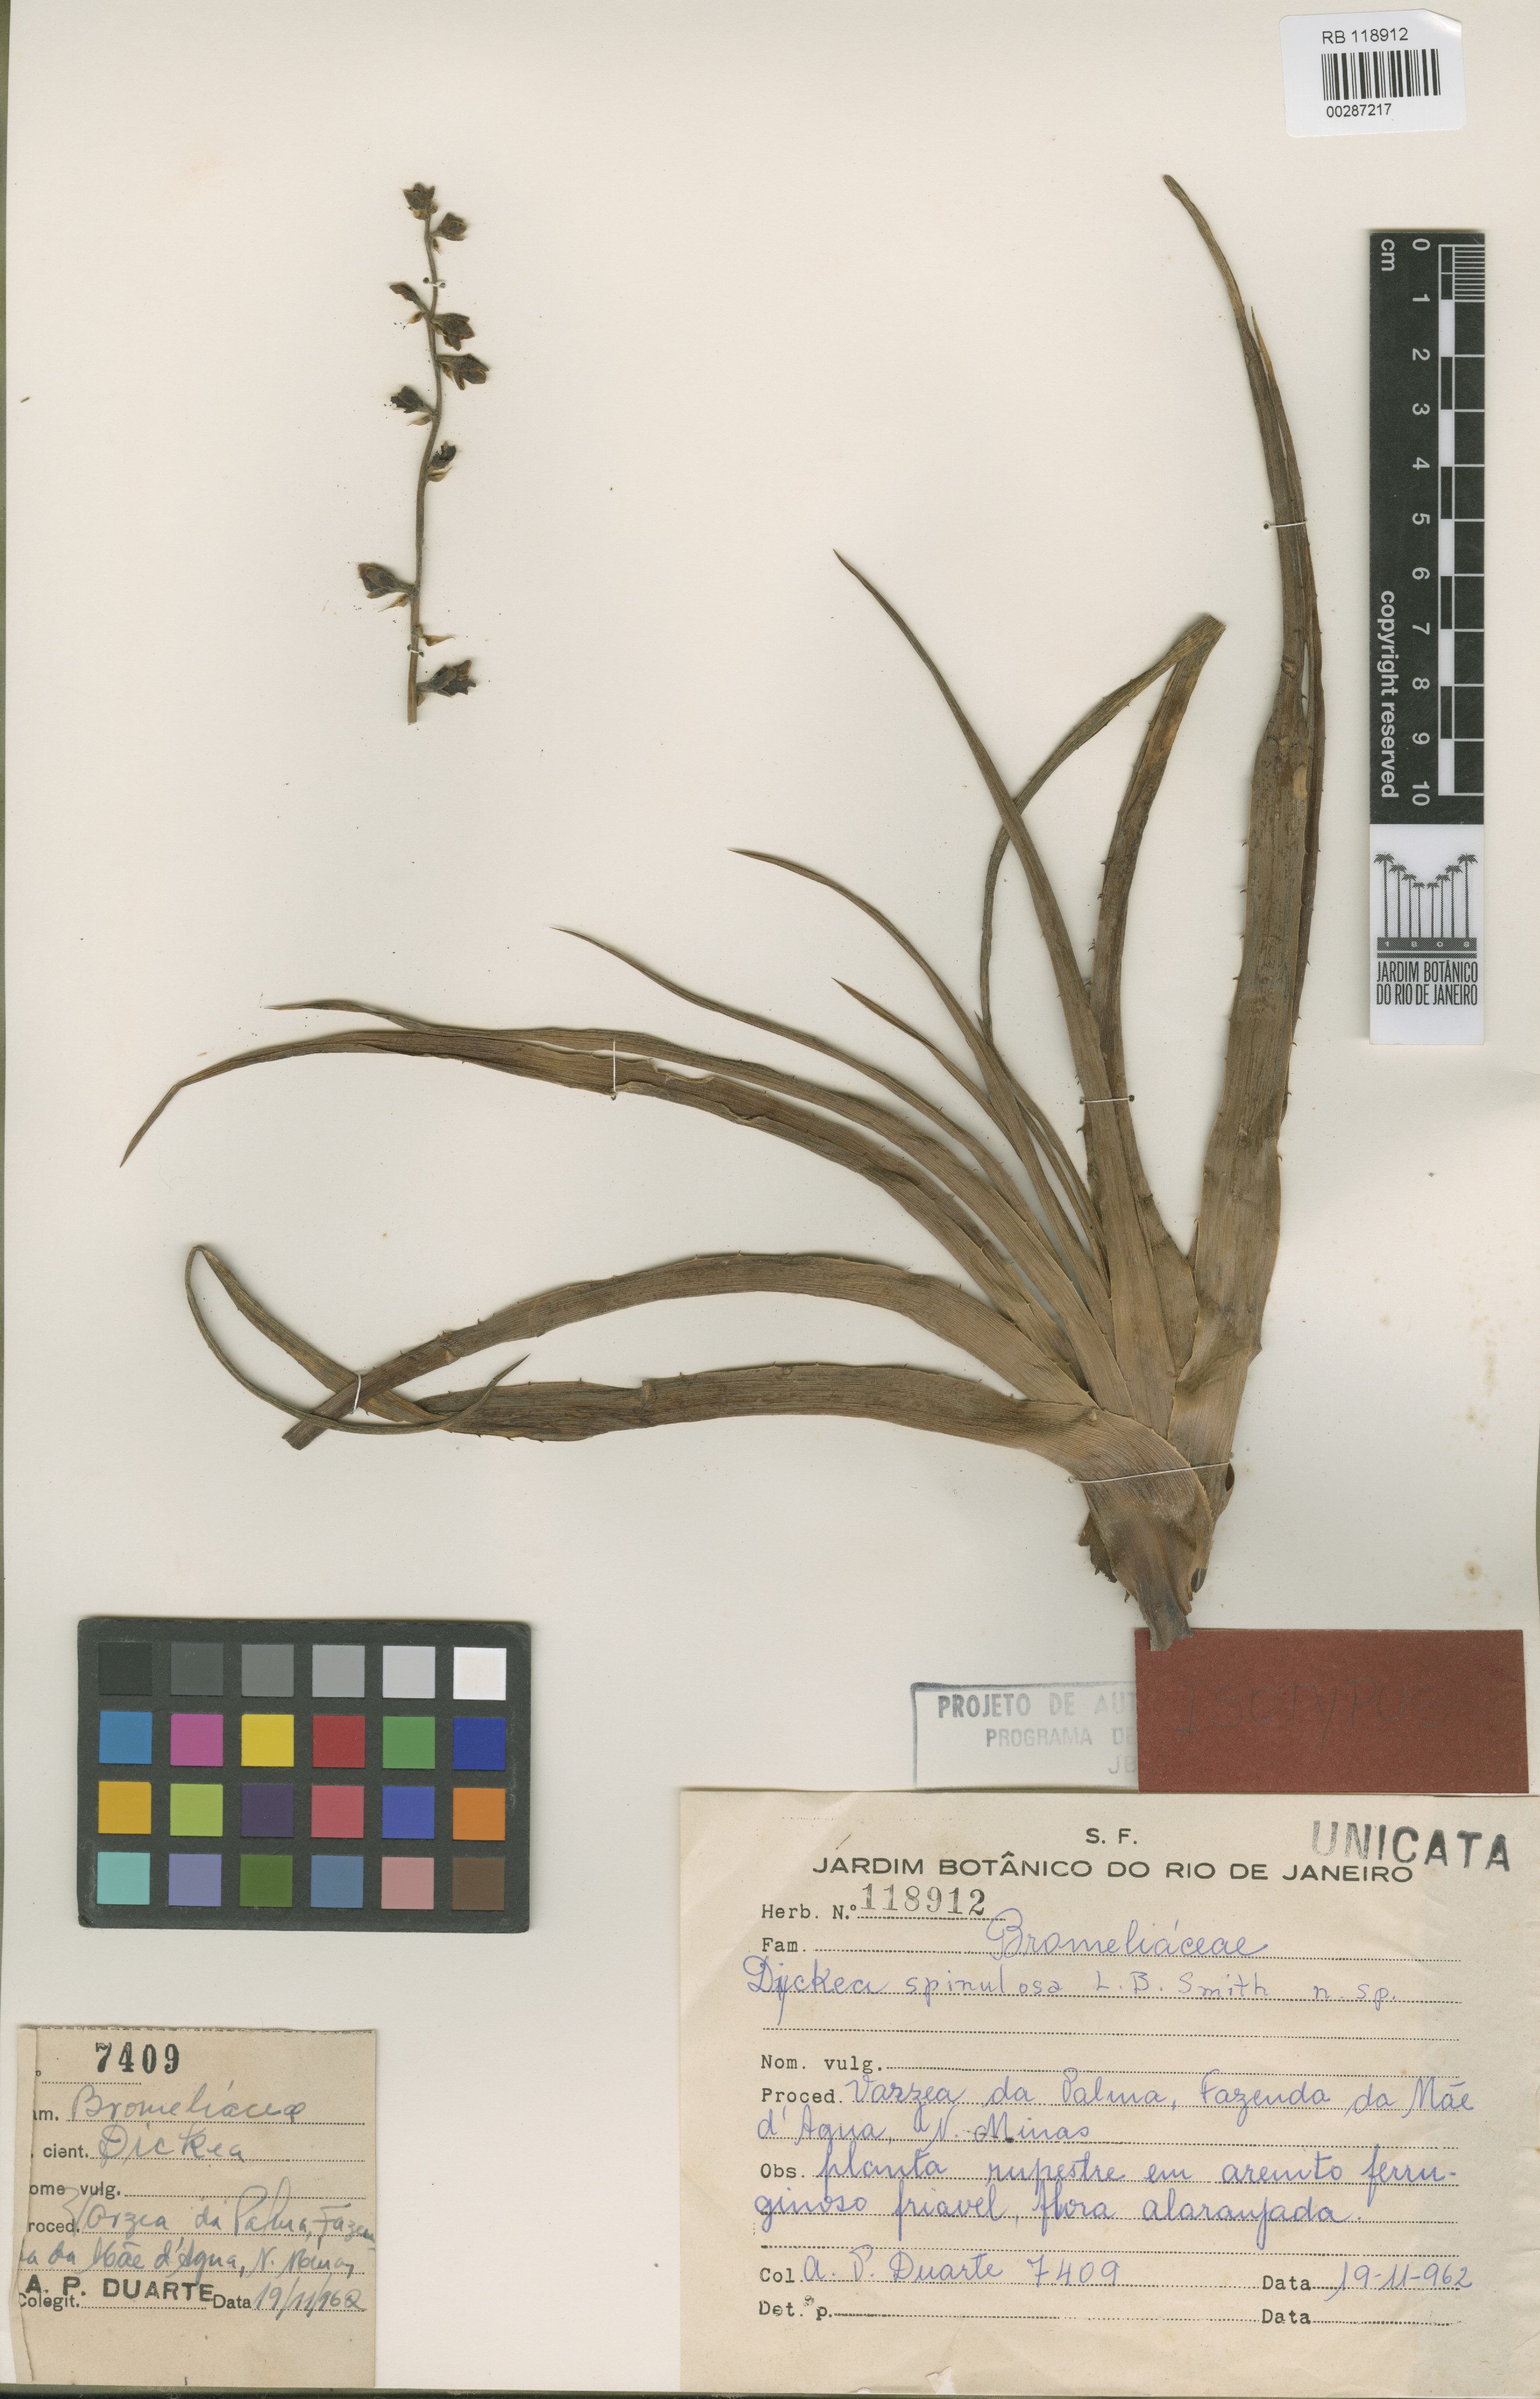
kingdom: Plantae
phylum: Tracheophyta
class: Liliopsida
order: Poales
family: Bromeliaceae
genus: Dyckia
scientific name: Dyckia spinulosa
